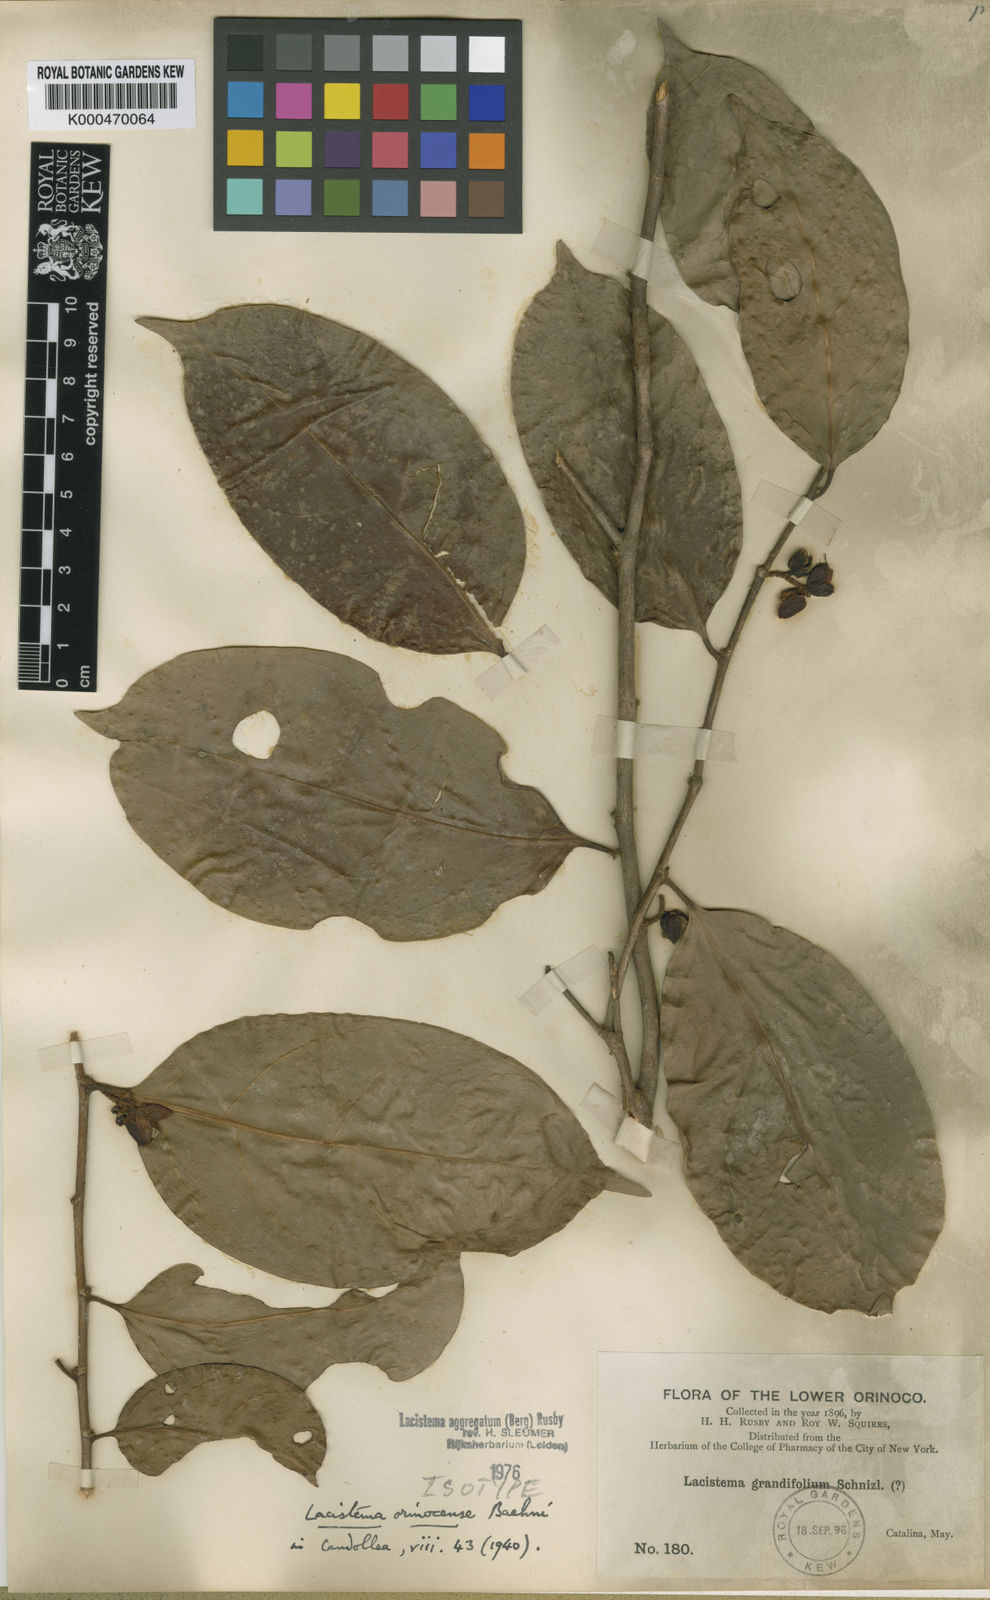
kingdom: Plantae
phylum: Tracheophyta
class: Magnoliopsida
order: Malpighiales
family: Lacistemataceae
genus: Lacistema
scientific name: Lacistema aggregatum
